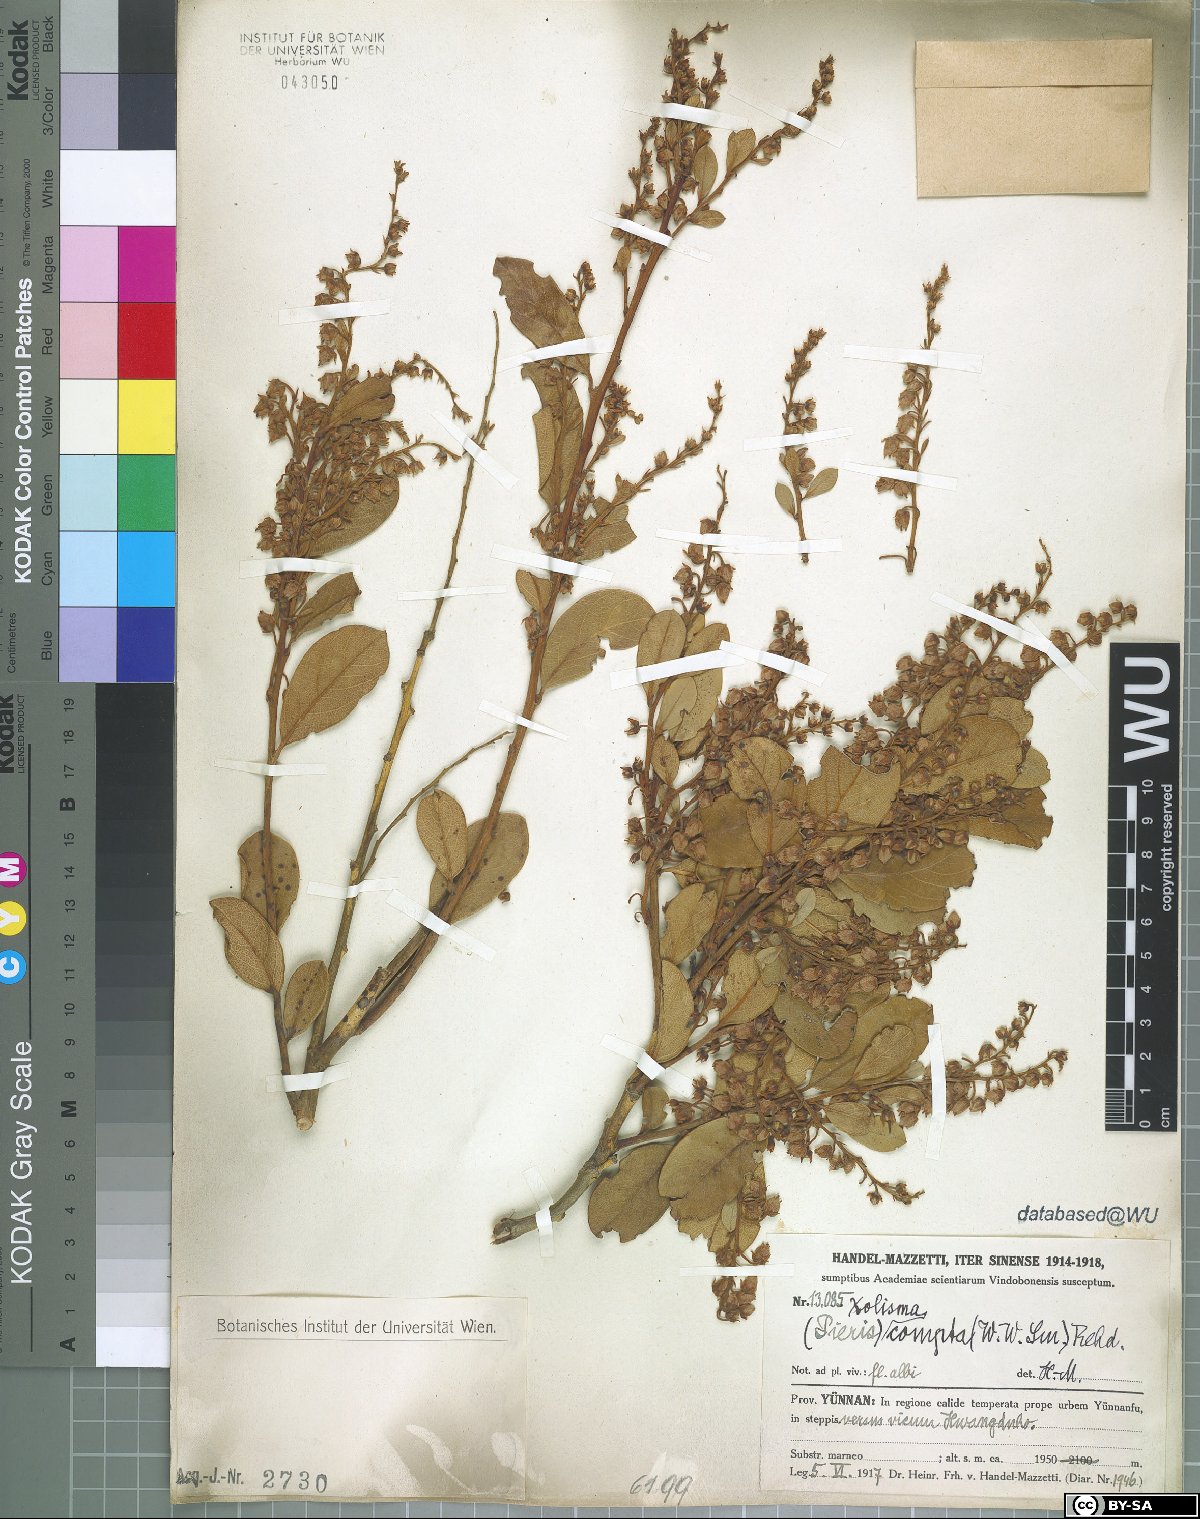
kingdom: Plantae
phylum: Tracheophyta
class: Magnoliopsida
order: Ericales
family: Ericaceae
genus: Lyonia
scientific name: Lyonia compta
